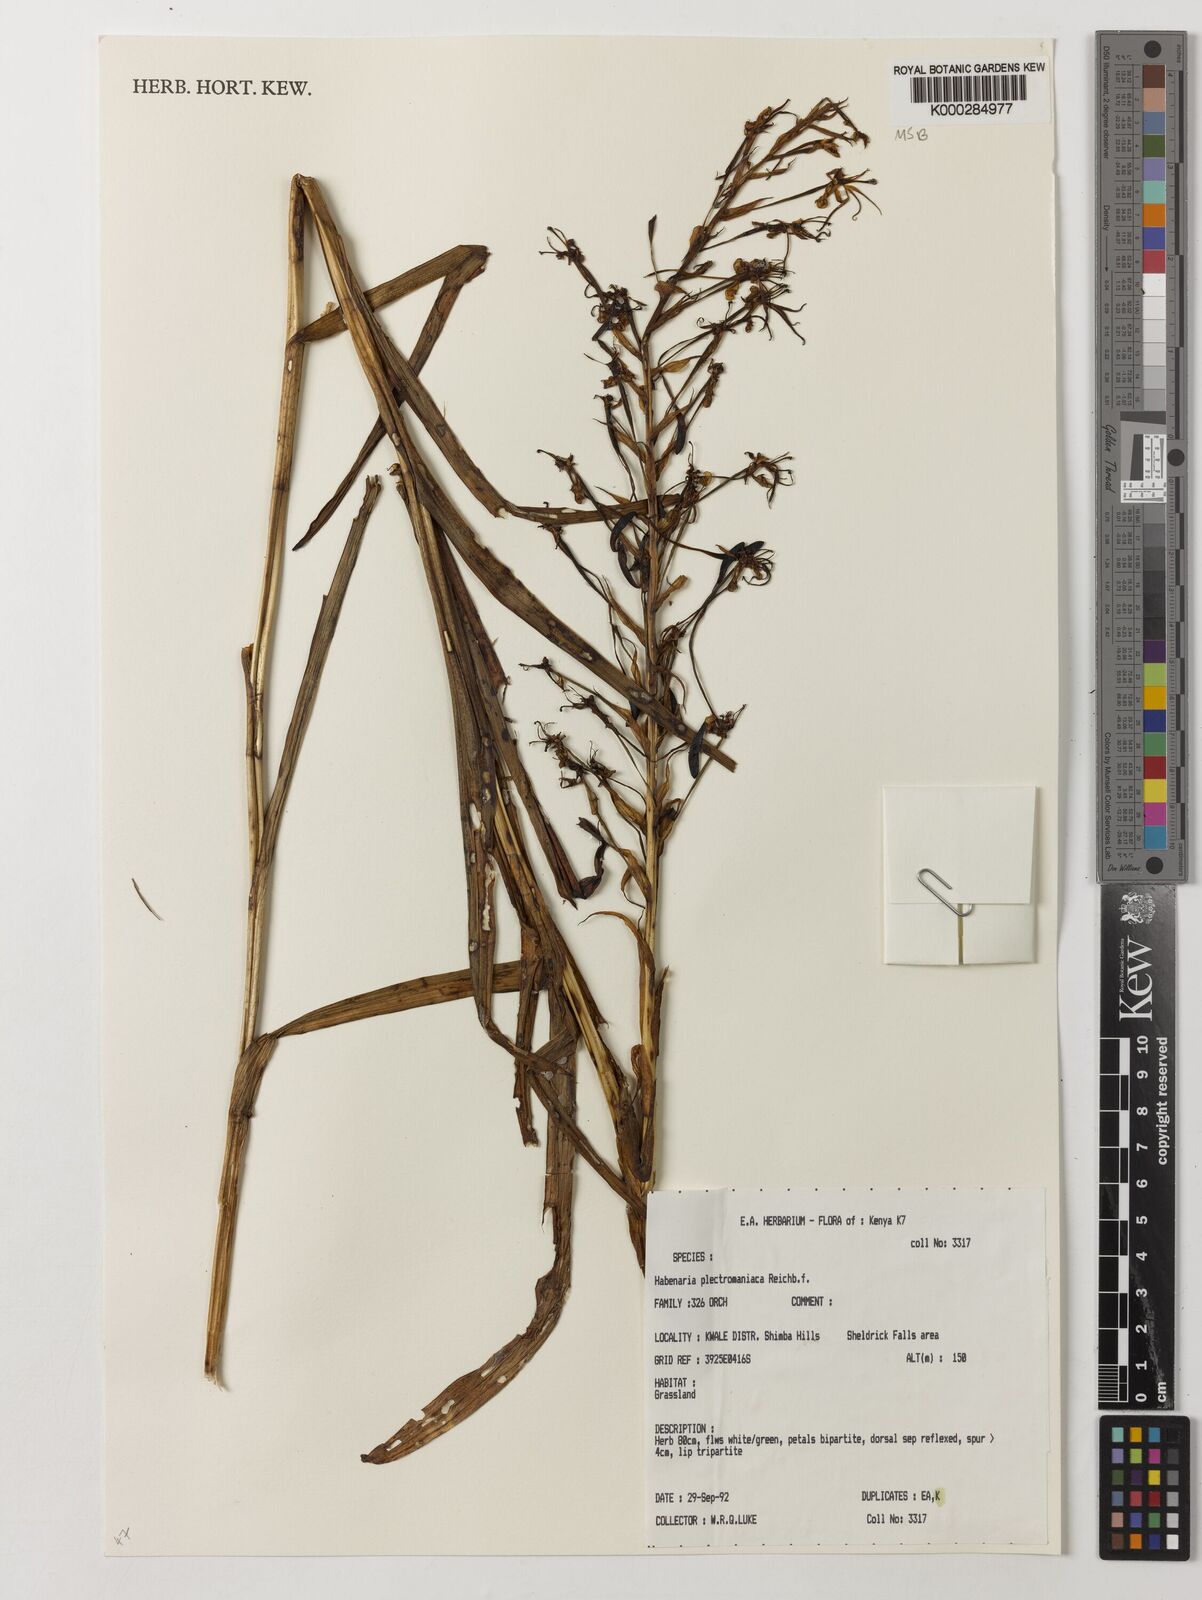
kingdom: Plantae
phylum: Tracheophyta
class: Liliopsida
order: Asparagales
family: Orchidaceae
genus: Habenaria
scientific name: Habenaria plectromaniaca
